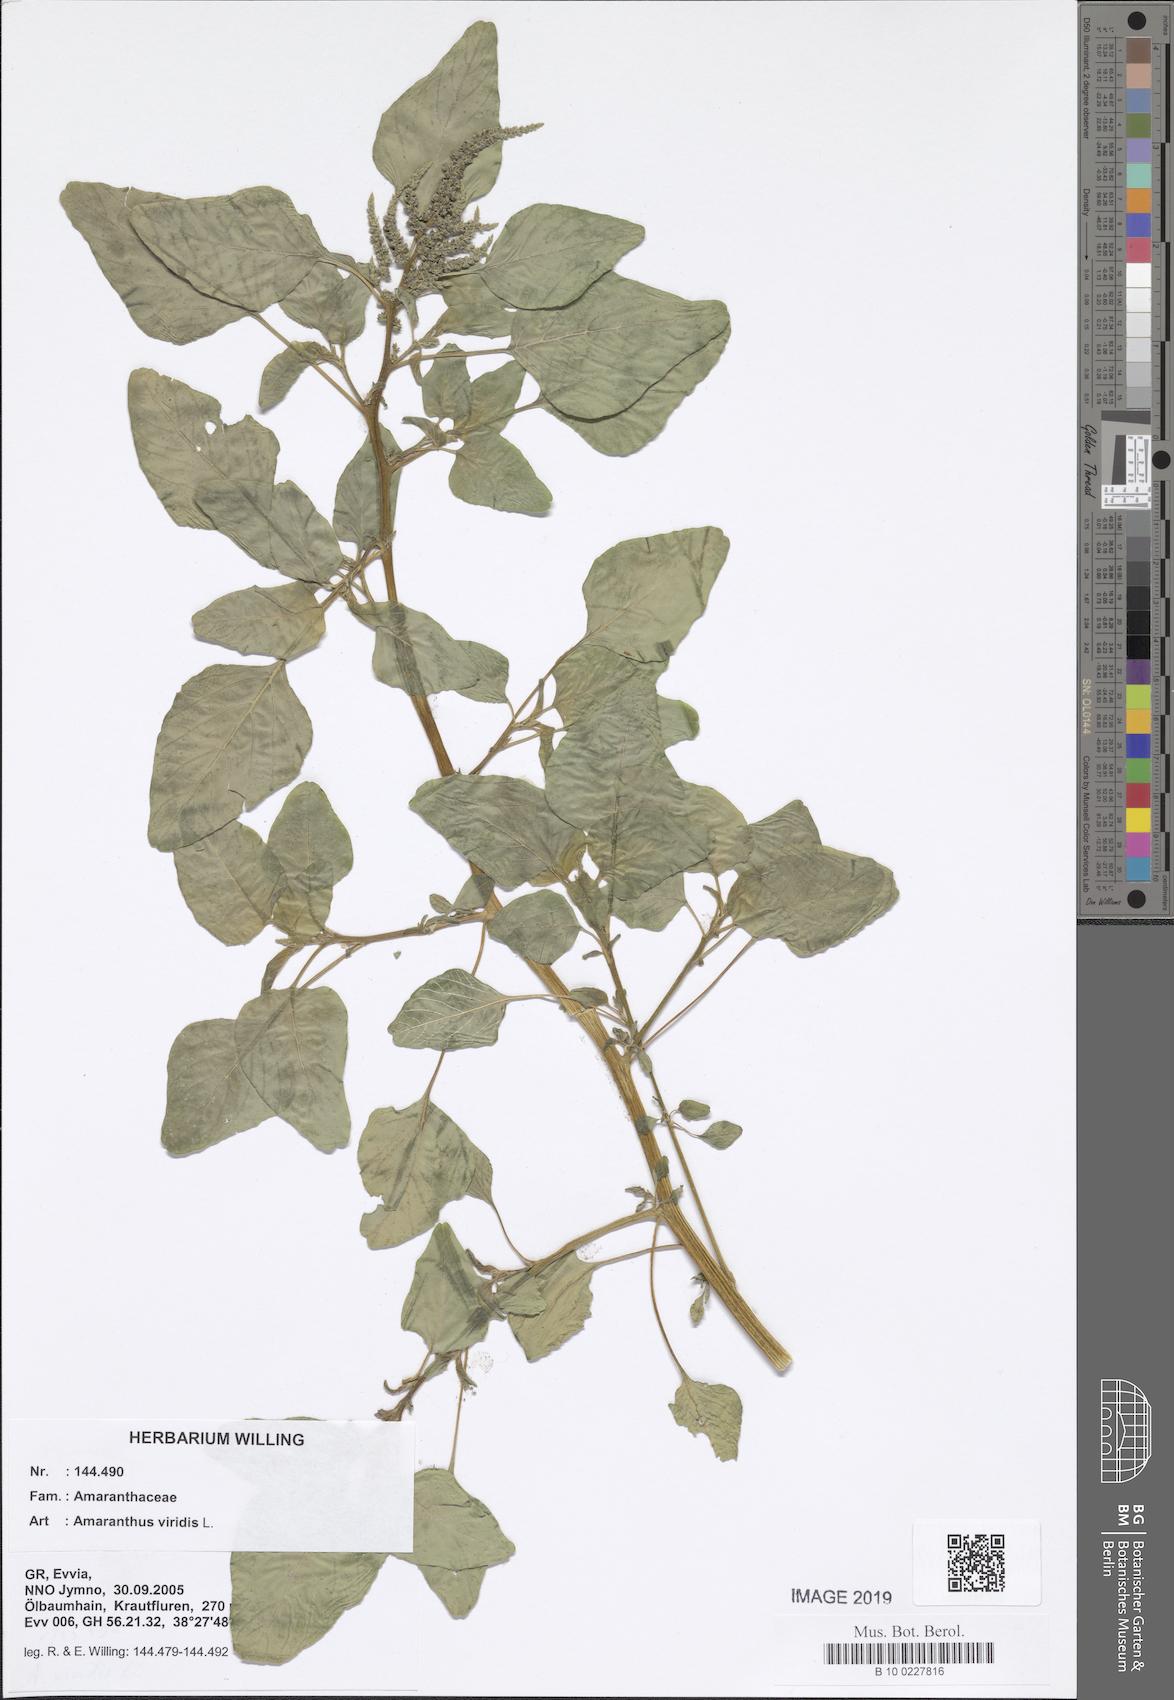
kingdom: Plantae
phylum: Tracheophyta
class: Magnoliopsida
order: Caryophyllales
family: Amaranthaceae
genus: Amaranthus
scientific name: Amaranthus viridis
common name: Slender amaranth
